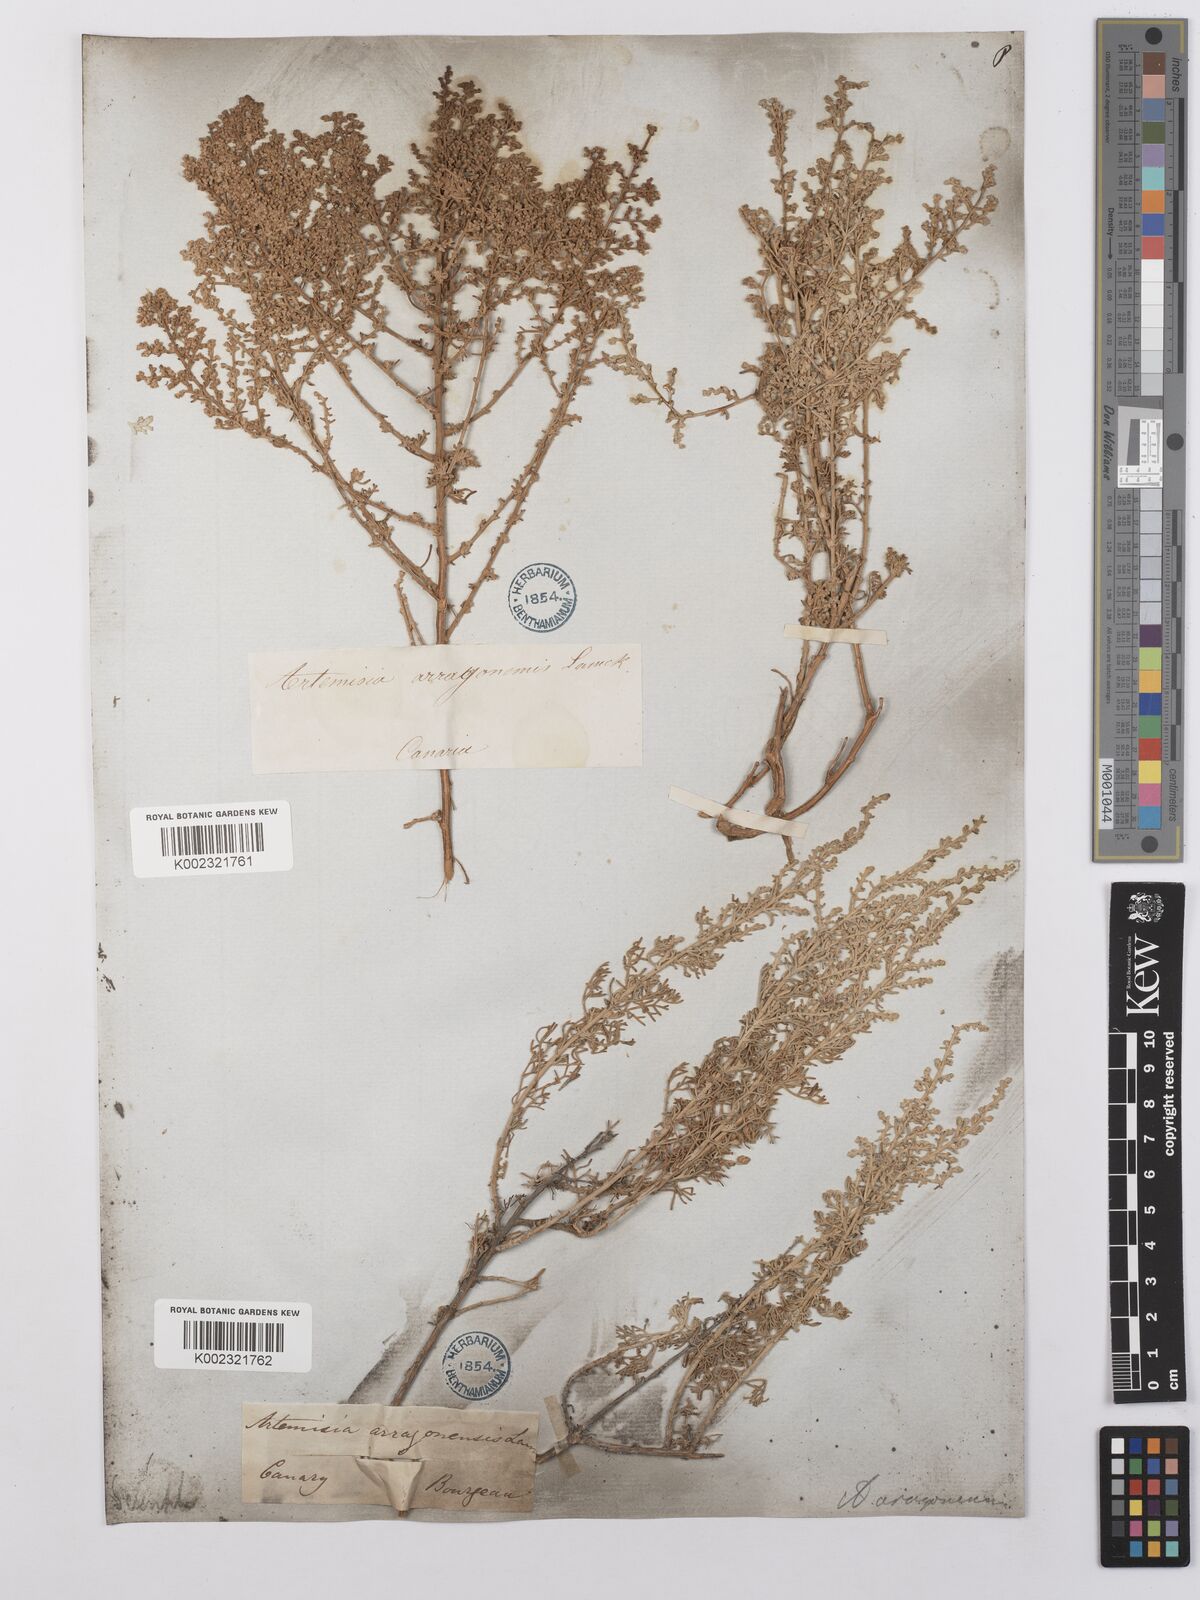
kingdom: Plantae
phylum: Tracheophyta
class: Magnoliopsida
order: Asterales
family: Asteraceae
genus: Artemisia
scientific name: Artemisia herba-alba
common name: White wormwood
